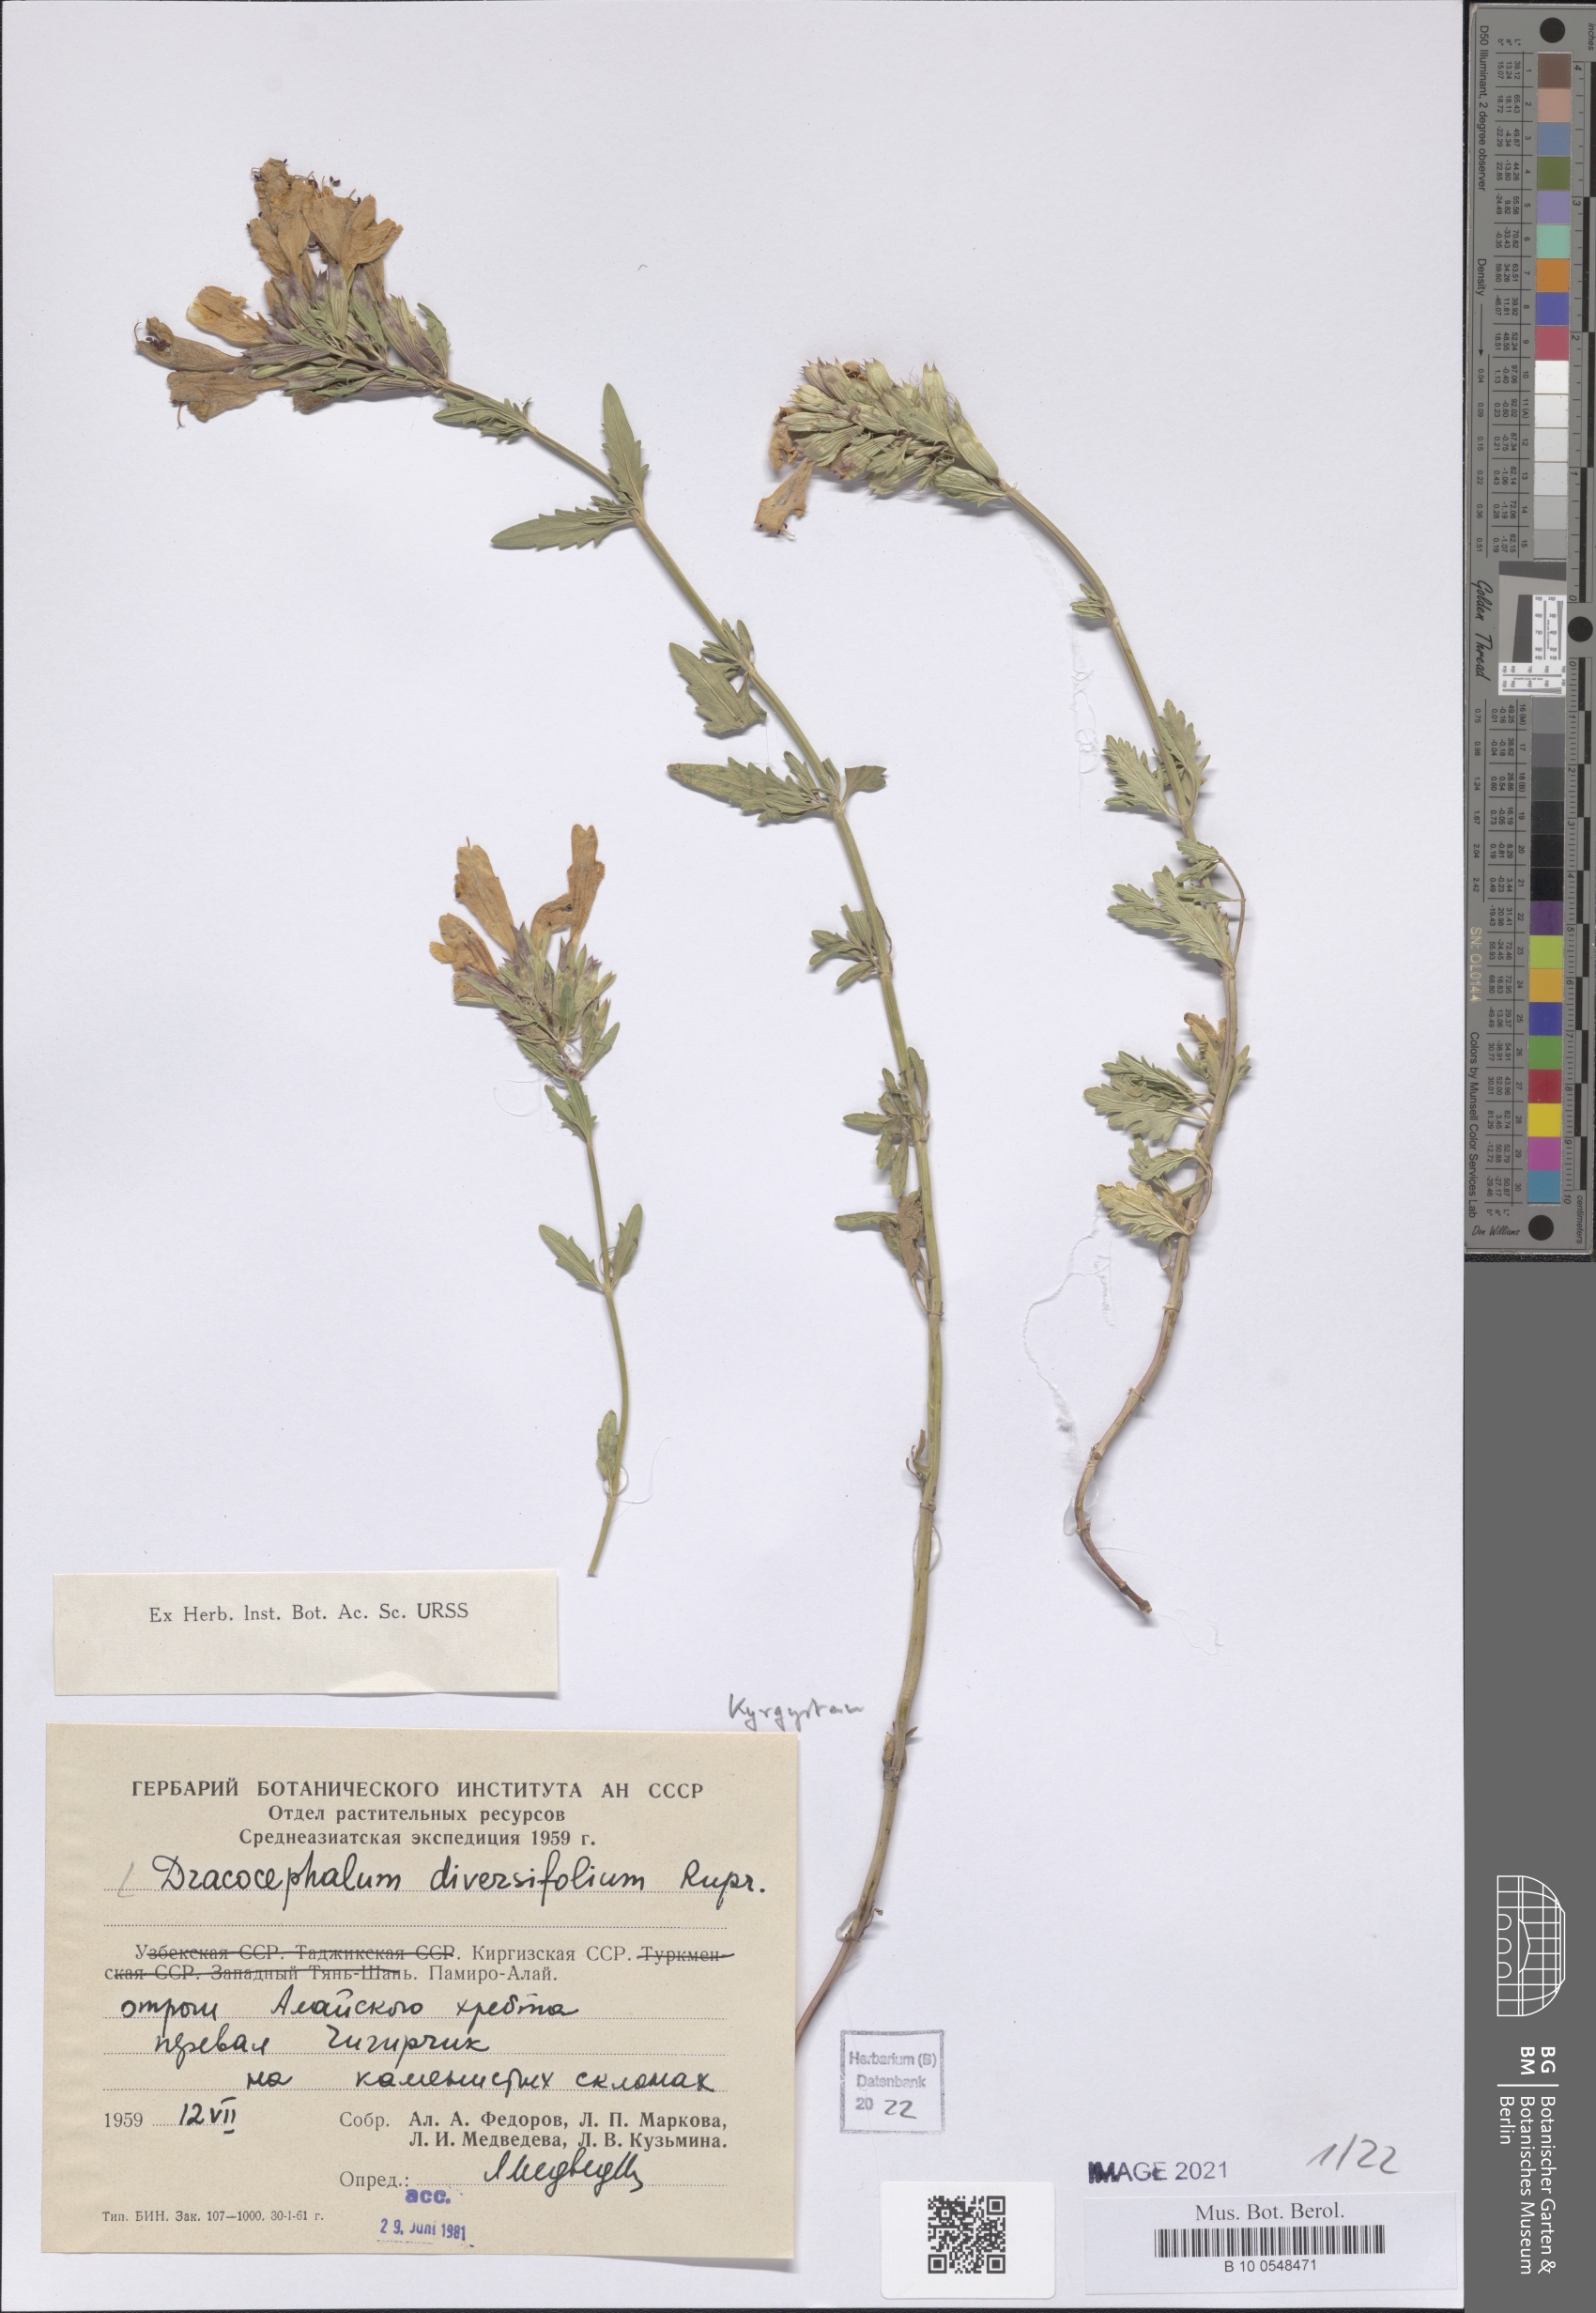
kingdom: Plantae
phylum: Tracheophyta
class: Magnoliopsida
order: Lamiales
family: Lamiaceae
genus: Dracocephalum
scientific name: Dracocephalum diversifolium
